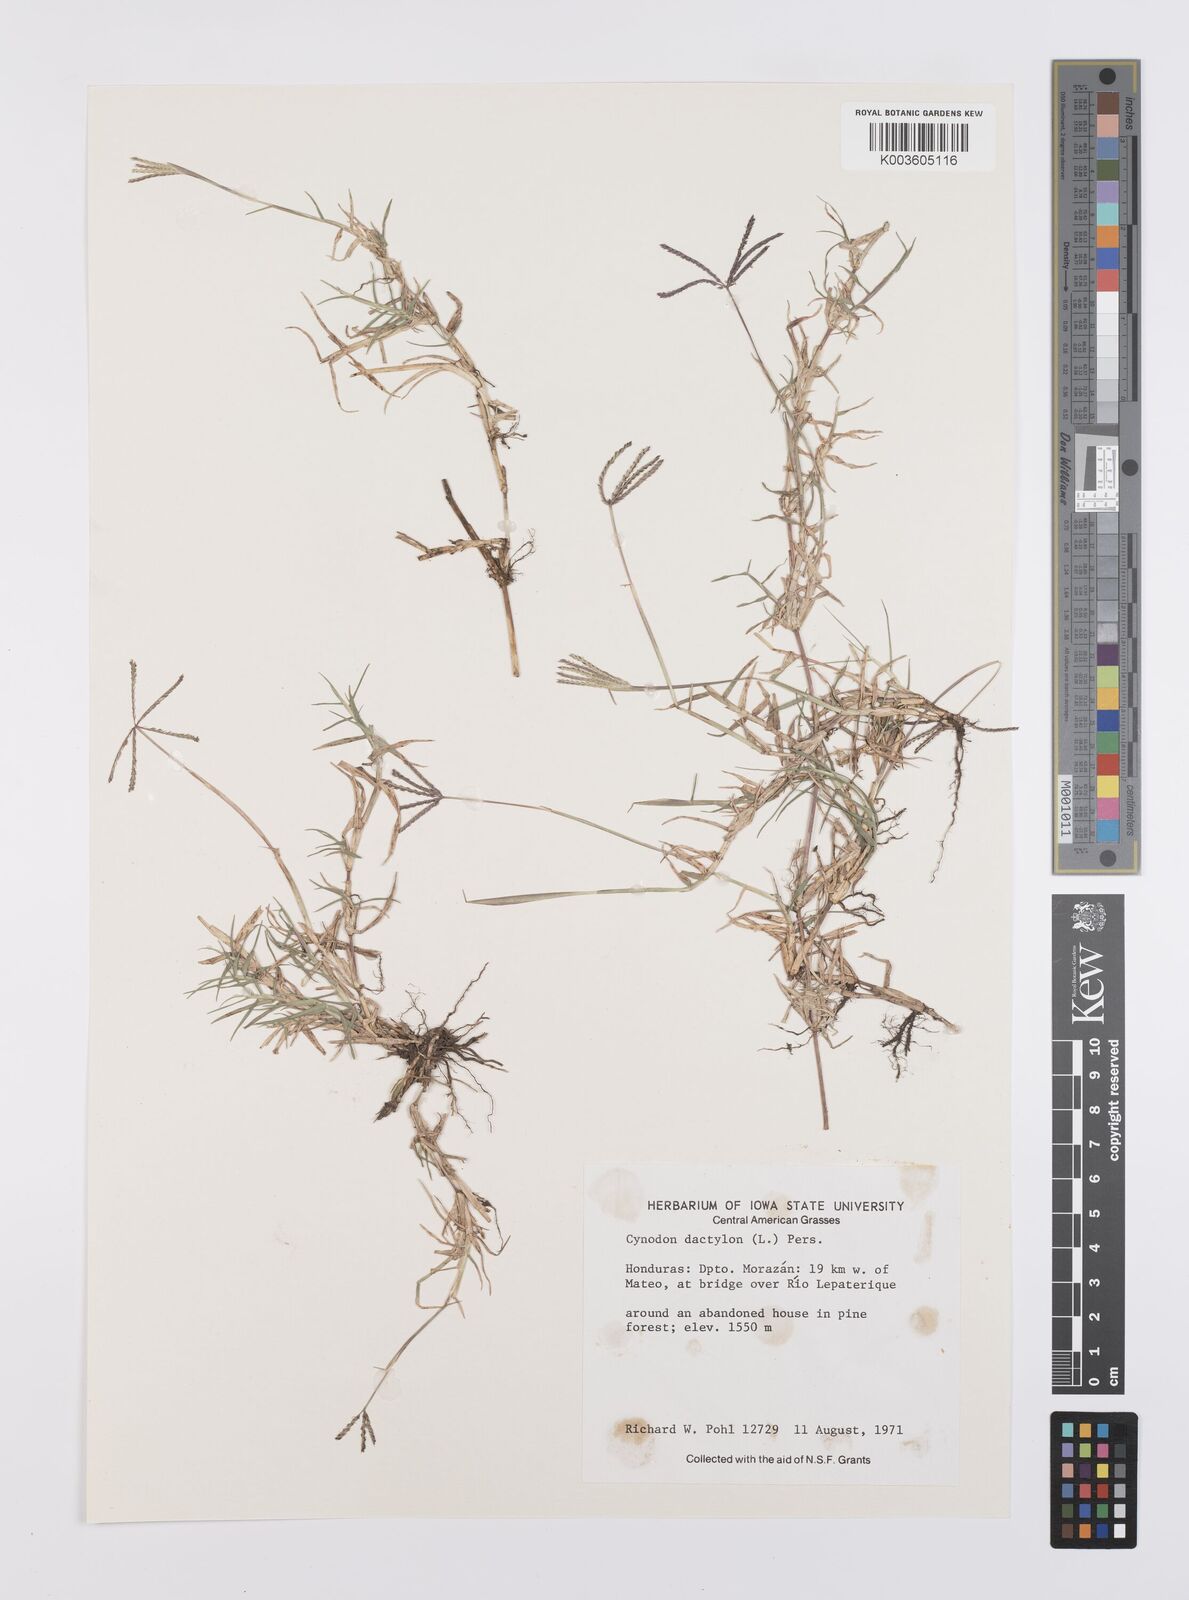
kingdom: Plantae
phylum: Tracheophyta
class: Liliopsida
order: Poales
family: Poaceae
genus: Cynodon
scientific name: Cynodon dactylon
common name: Bermuda grass
